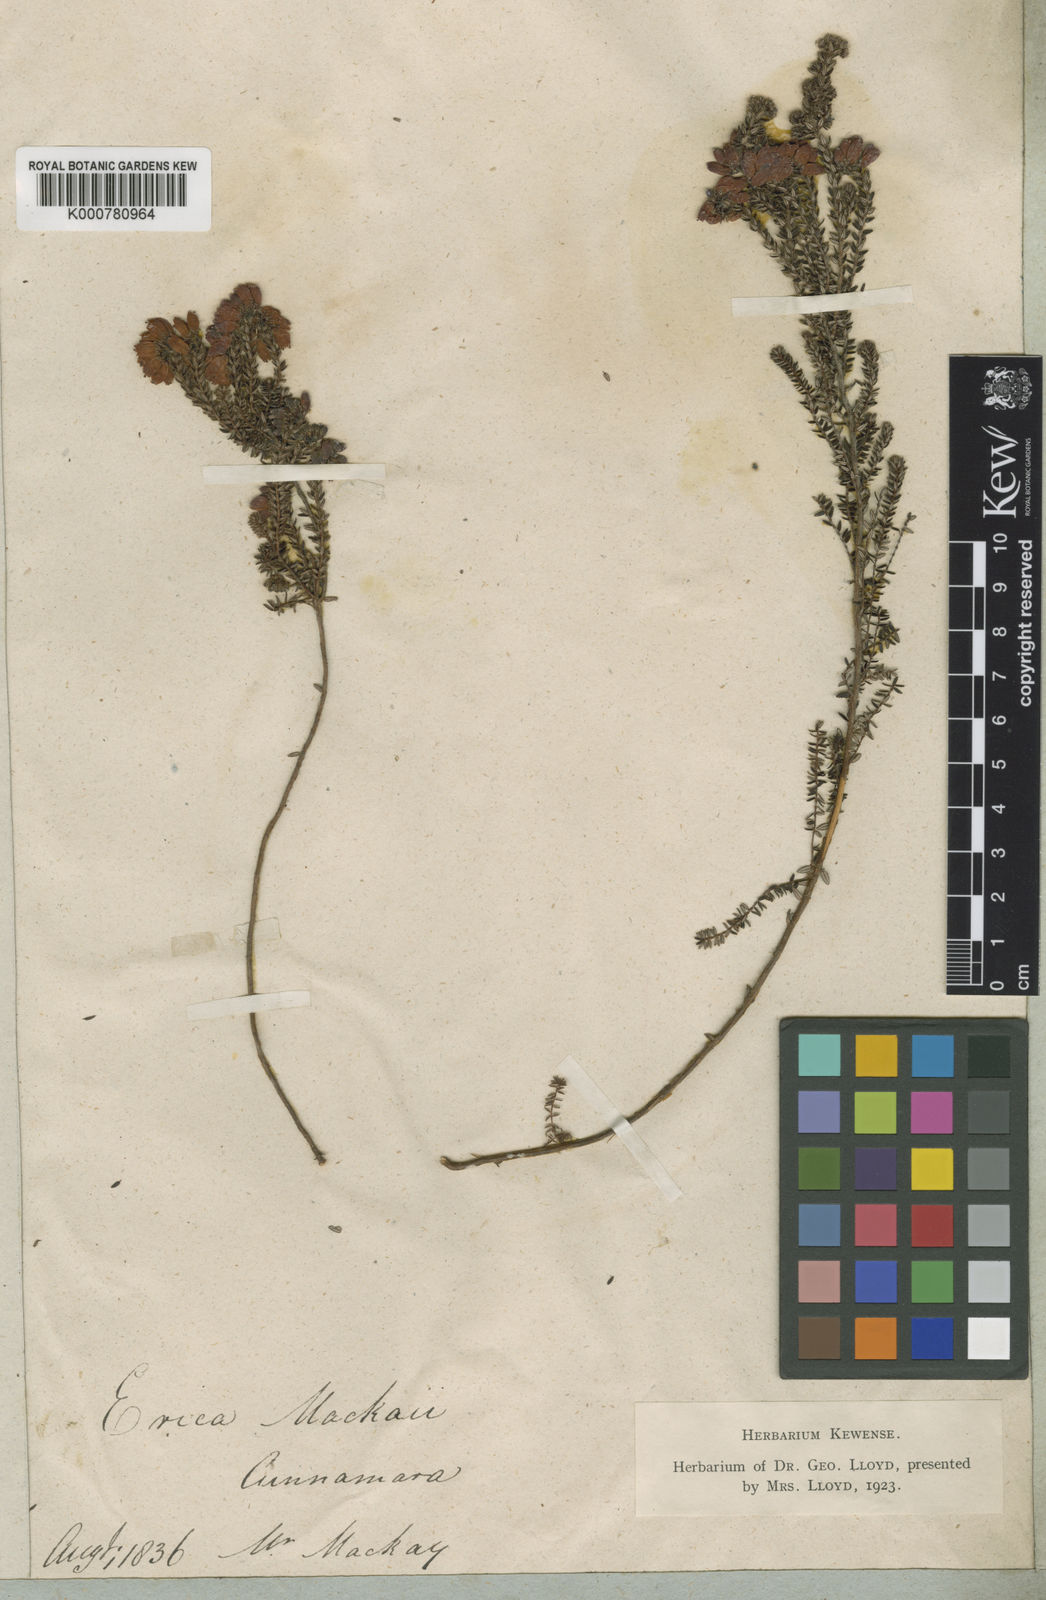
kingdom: Plantae
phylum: Tracheophyta
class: Magnoliopsida
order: Ericales
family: Ericaceae
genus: Erica
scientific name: Erica
